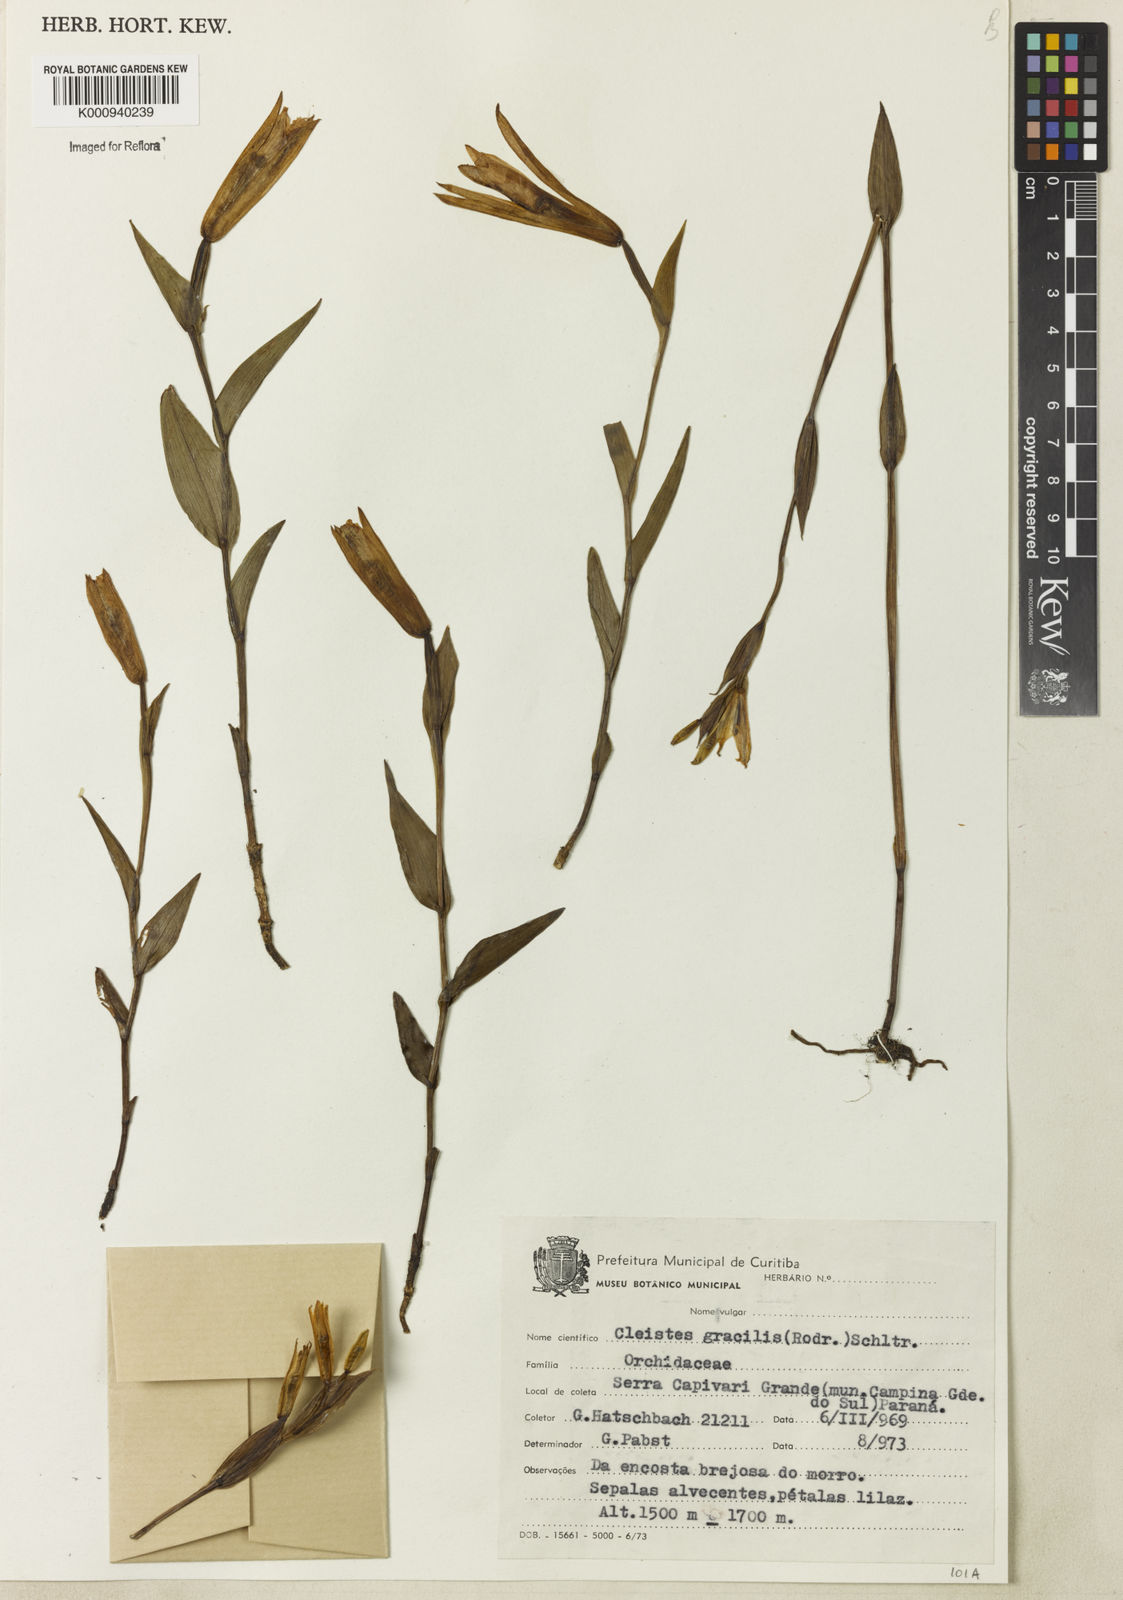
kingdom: Plantae
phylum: Tracheophyta
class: Liliopsida
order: Asparagales
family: Orchidaceae
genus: Cleistes
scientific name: Cleistes rodriguesii
